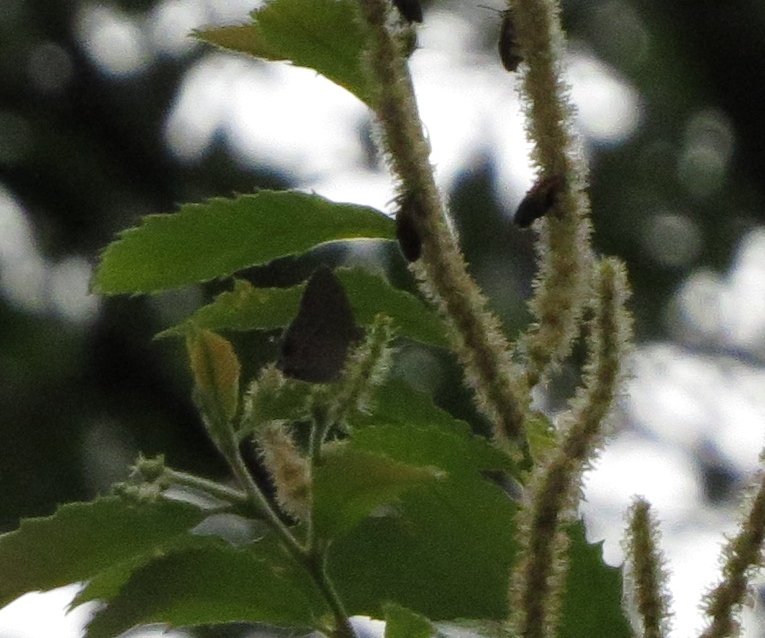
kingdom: Animalia
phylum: Arthropoda
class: Insecta
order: Lepidoptera
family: Lycaenidae
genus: Calycopis
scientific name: Calycopis cecrops
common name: Red-banded Hairstreak
